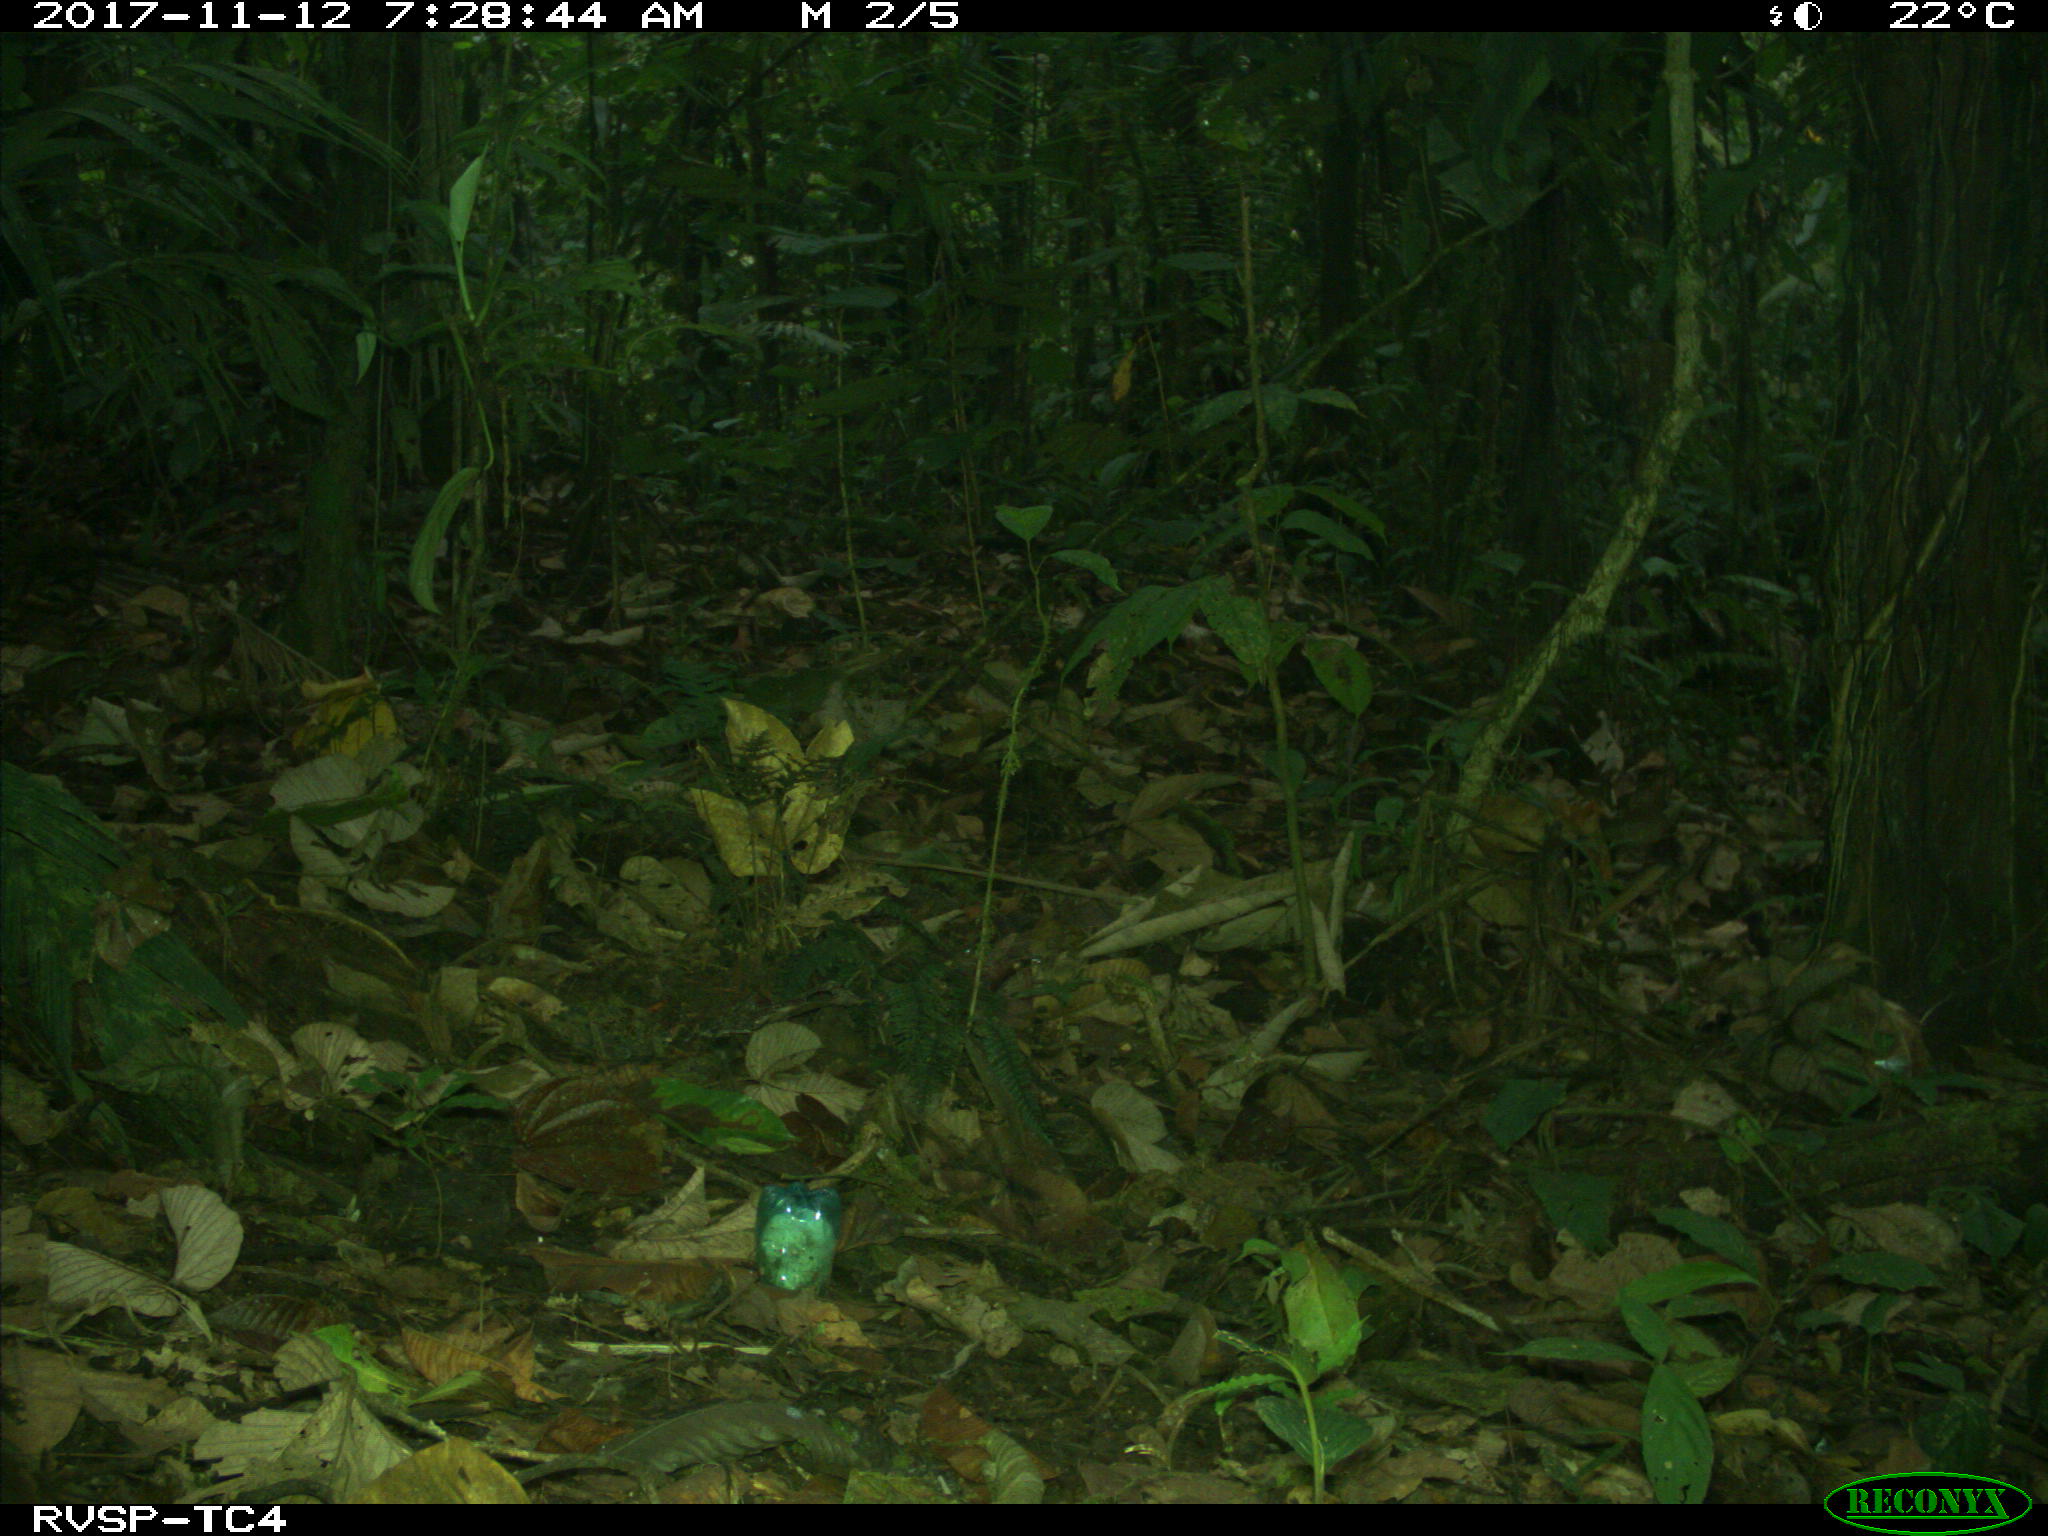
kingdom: Animalia
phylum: Chordata
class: Mammalia
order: Carnivora
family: Mustelidae
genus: Eira
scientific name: Eira barbara
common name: Tayra
